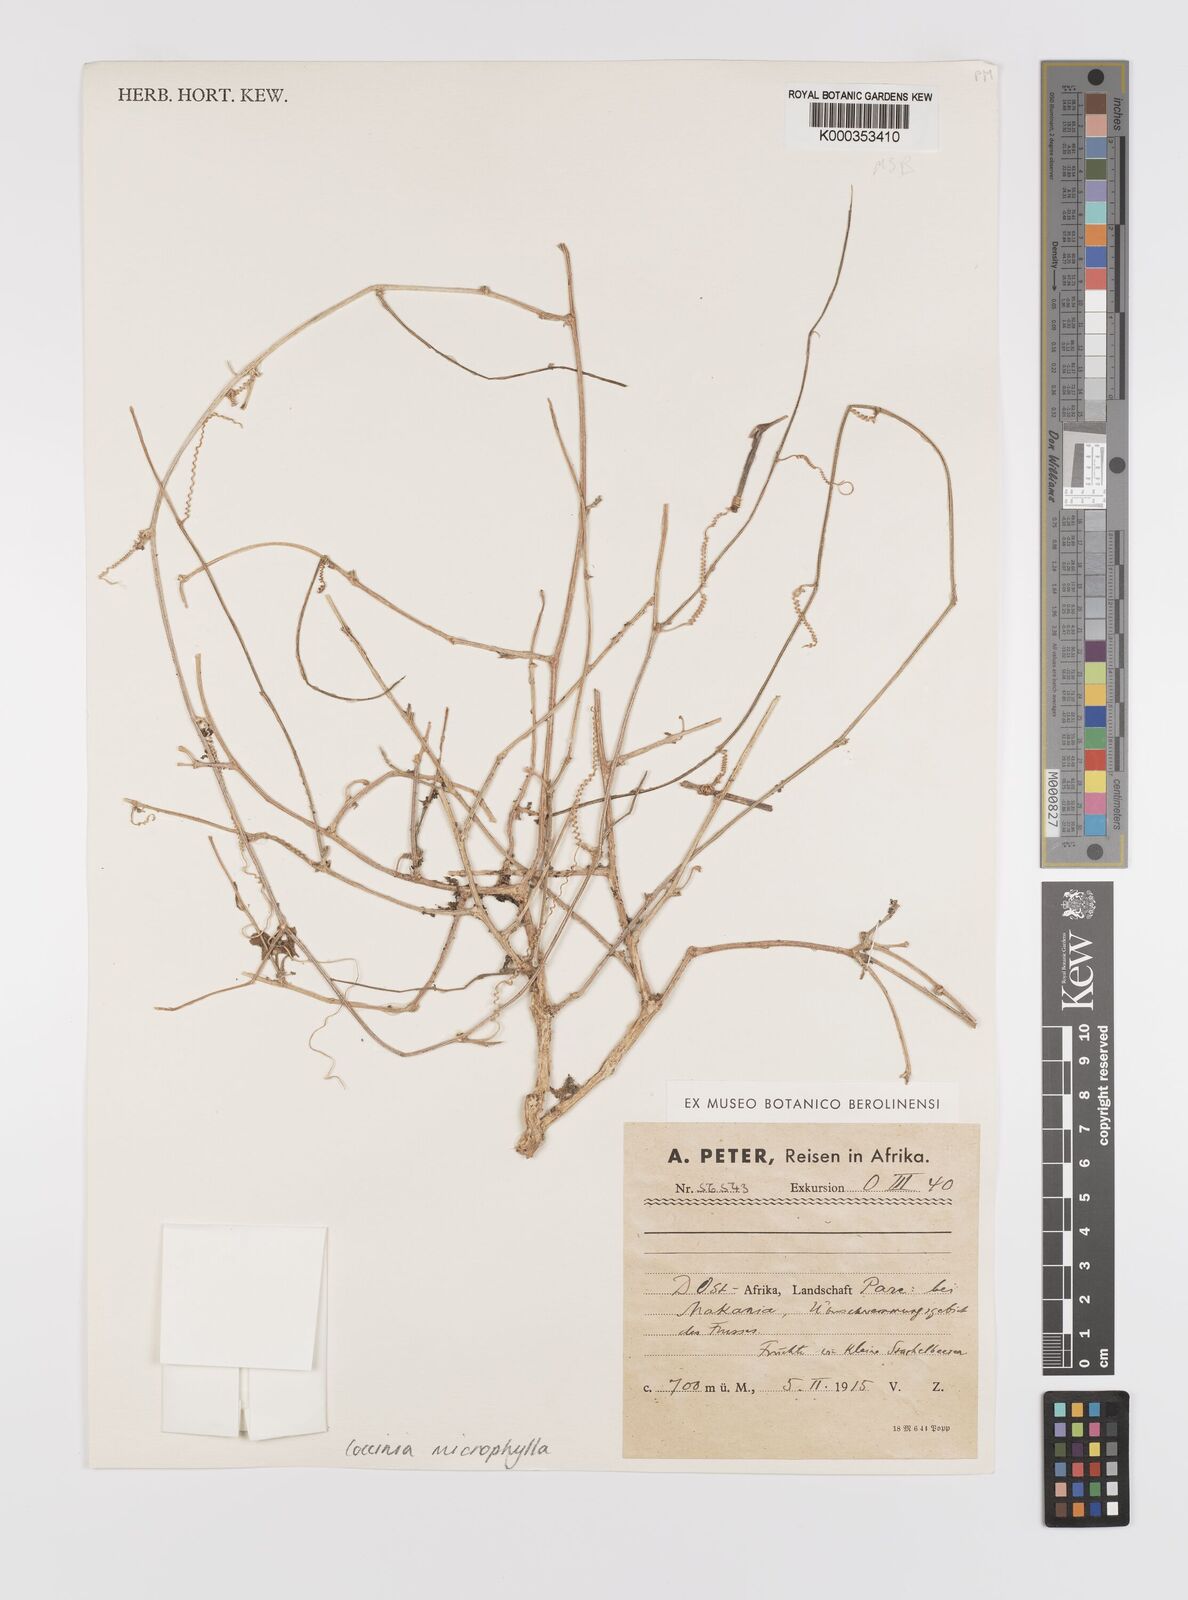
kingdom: Plantae
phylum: Tracheophyta
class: Magnoliopsida
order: Cucurbitales
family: Cucurbitaceae
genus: Coccinia
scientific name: Coccinia microphylla
